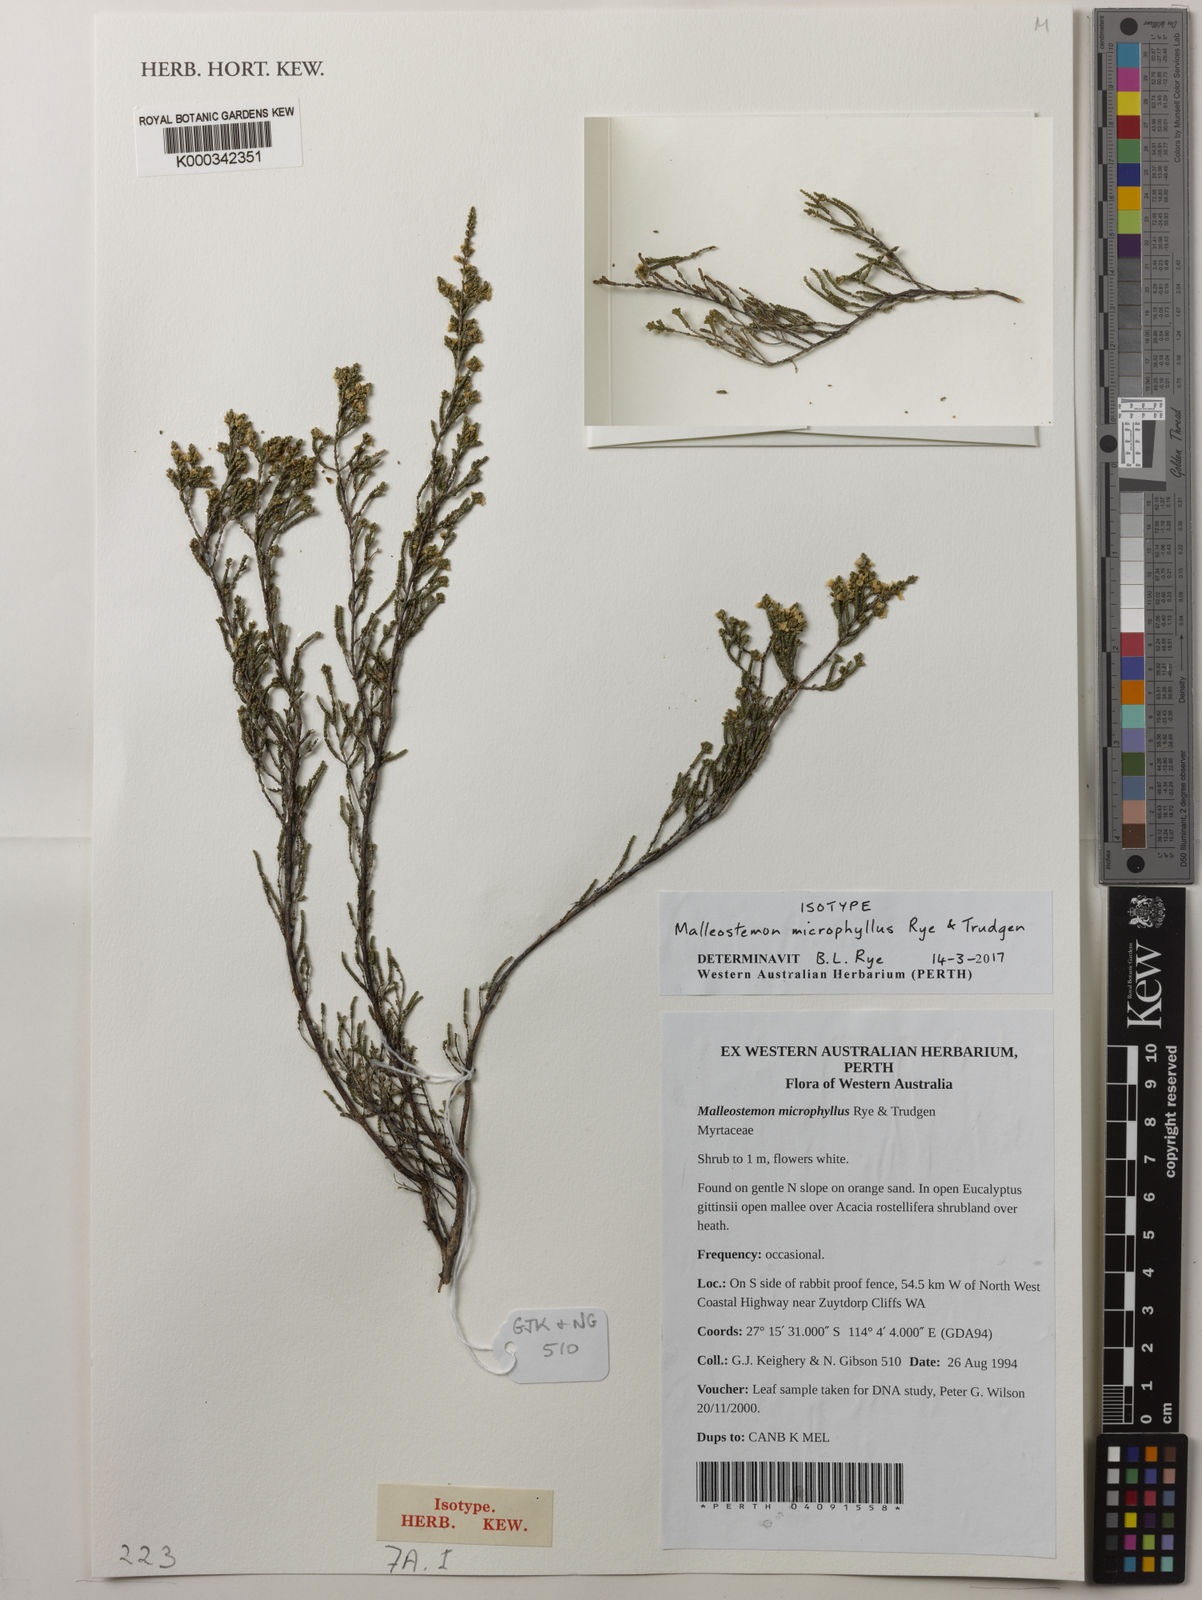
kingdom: Plantae
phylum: Tracheophyta
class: Magnoliopsida
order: Myrtales
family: Myrtaceae
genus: Malleostemon
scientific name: Malleostemon microphyllus
